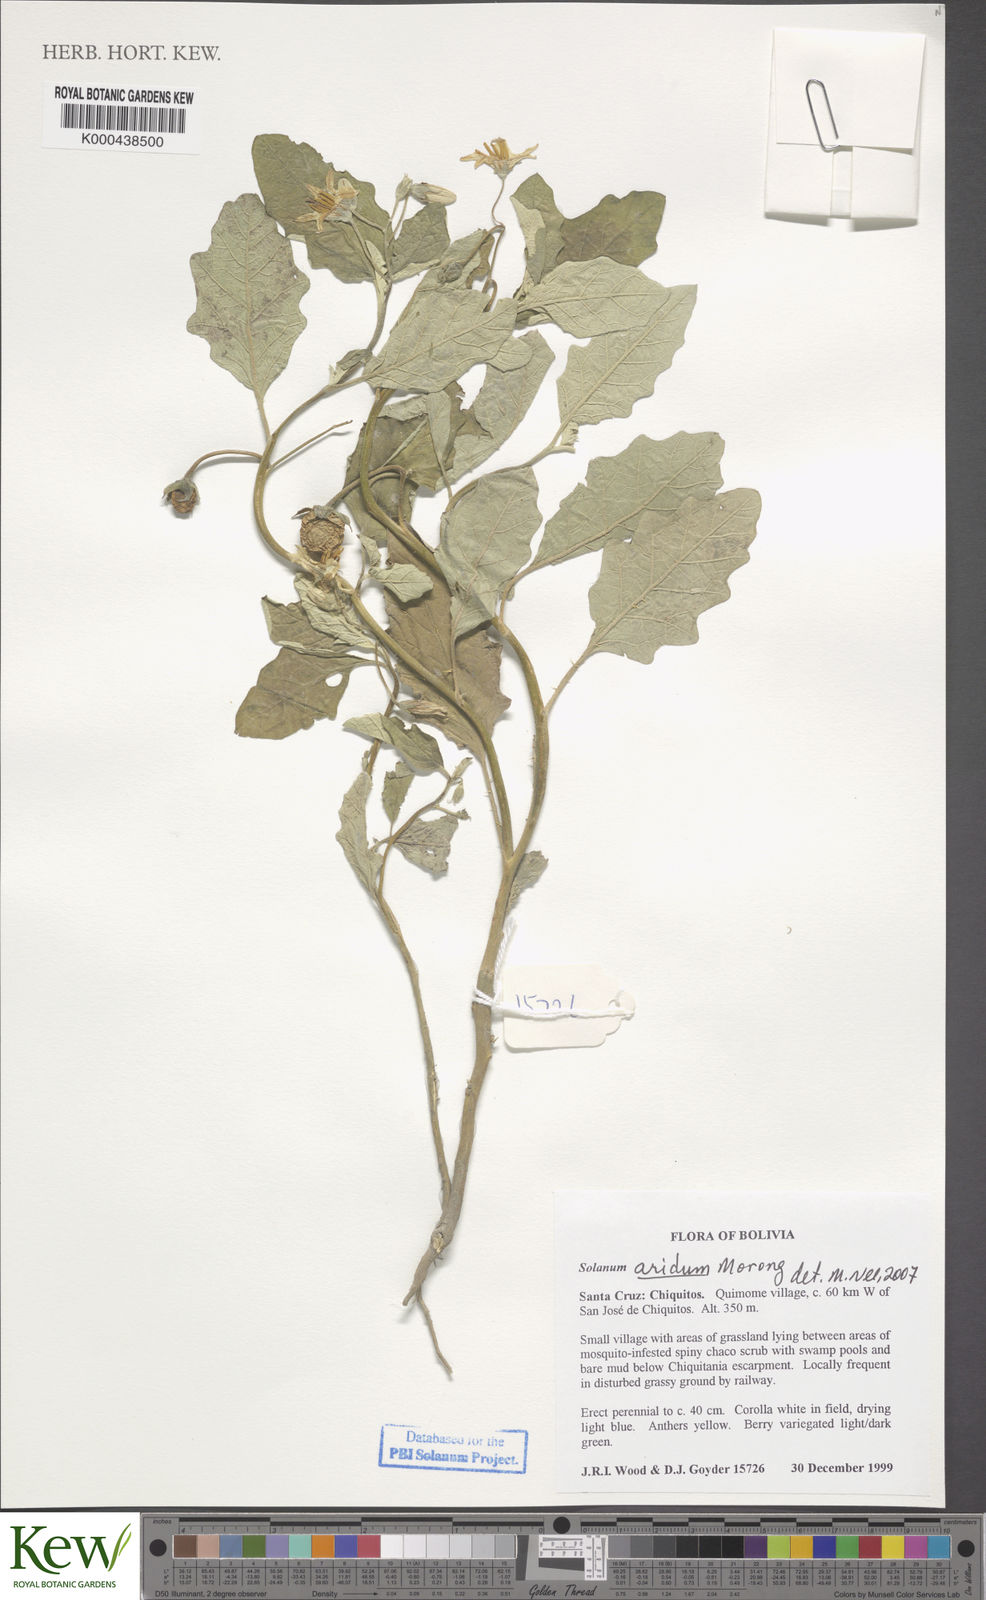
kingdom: Plantae
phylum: Tracheophyta
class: Magnoliopsida
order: Solanales
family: Solanaceae
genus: Solanum
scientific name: Solanum aridum
